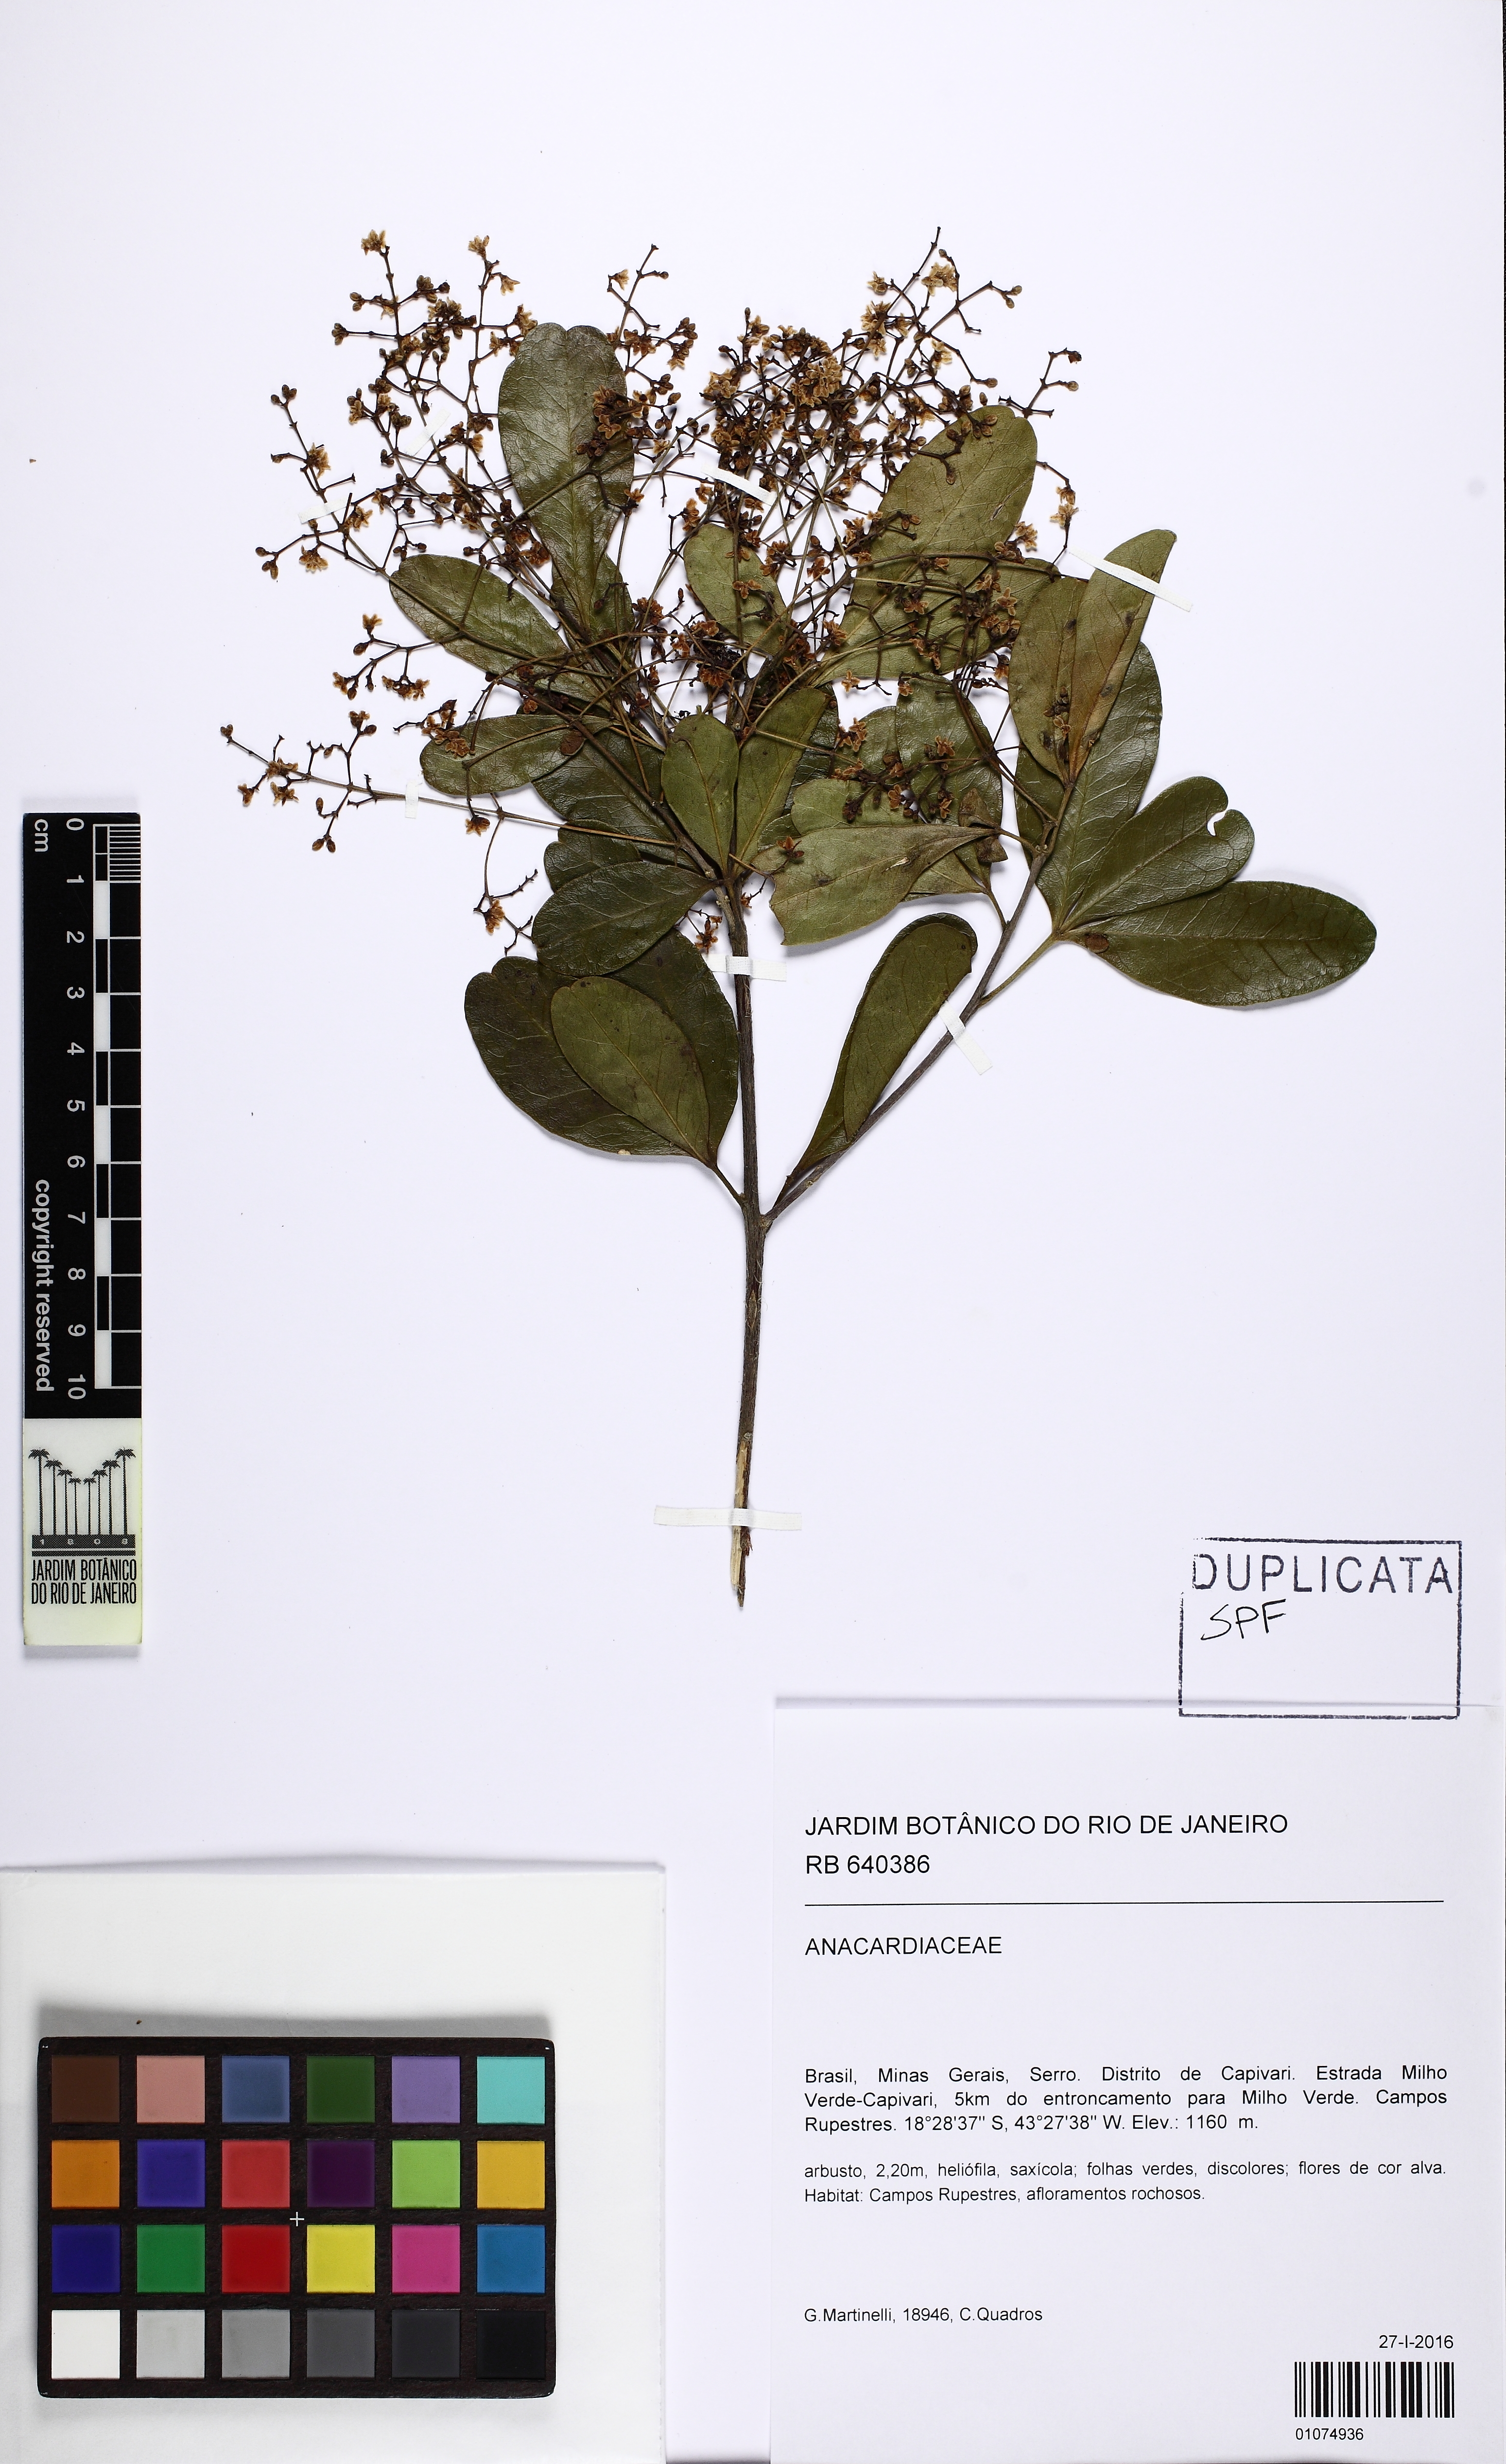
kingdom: Plantae
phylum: Tracheophyta
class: Magnoliopsida
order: Sapindales
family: Anacardiaceae
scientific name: Anacardiaceae
